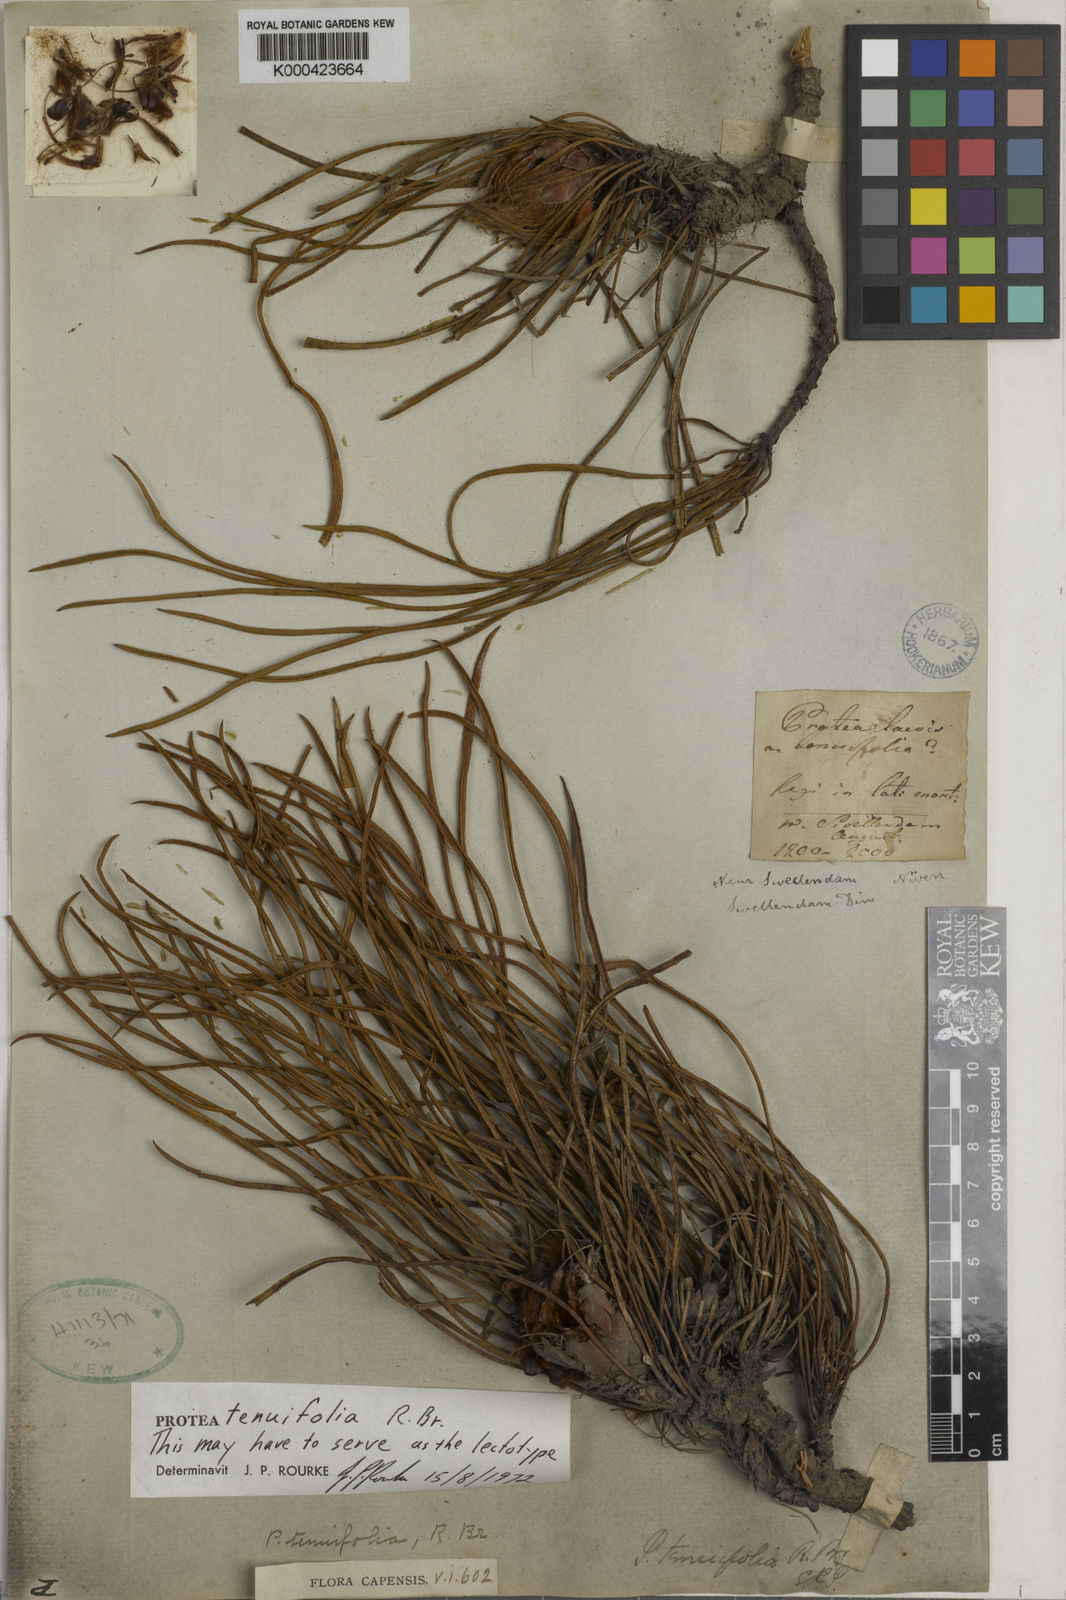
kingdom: Plantae
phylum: Tracheophyta
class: Magnoliopsida
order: Proteales
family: Proteaceae
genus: Protea
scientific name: Protea scabra
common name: Sandpaper-leaf sugarbush
